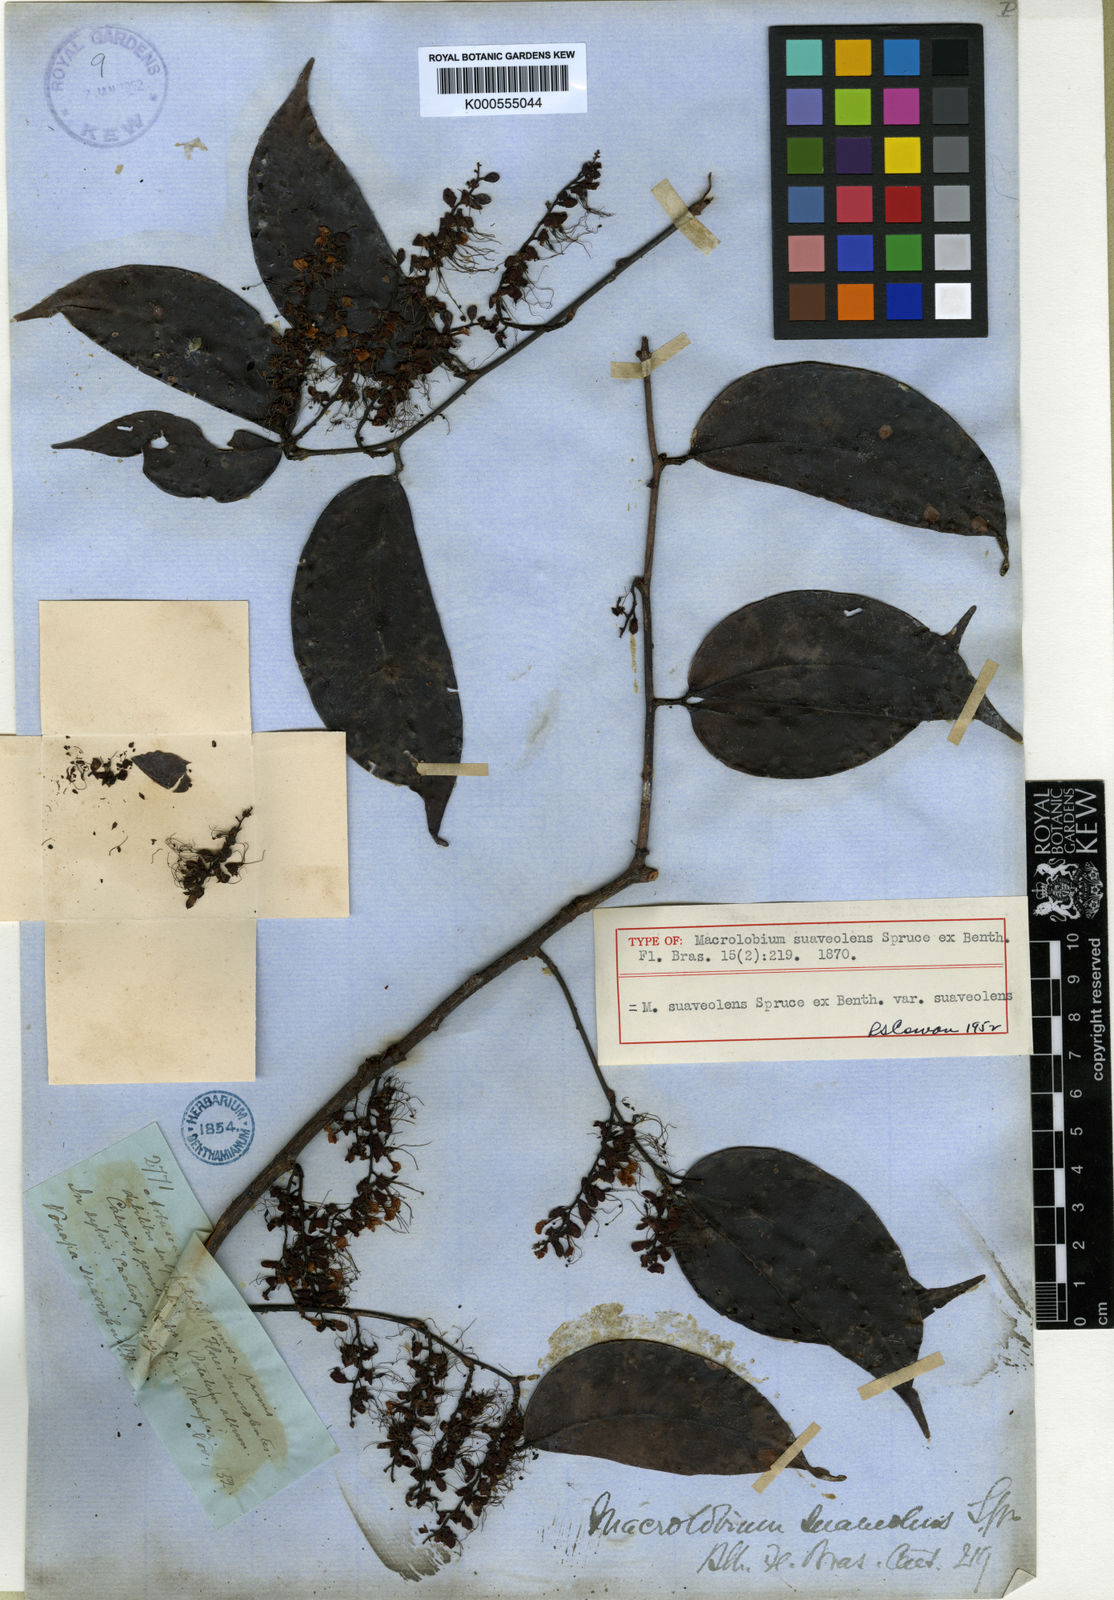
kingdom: Plantae
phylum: Tracheophyta
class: Magnoliopsida
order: Fabales
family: Fabaceae
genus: Macrolobium
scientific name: Macrolobium suaveolens
